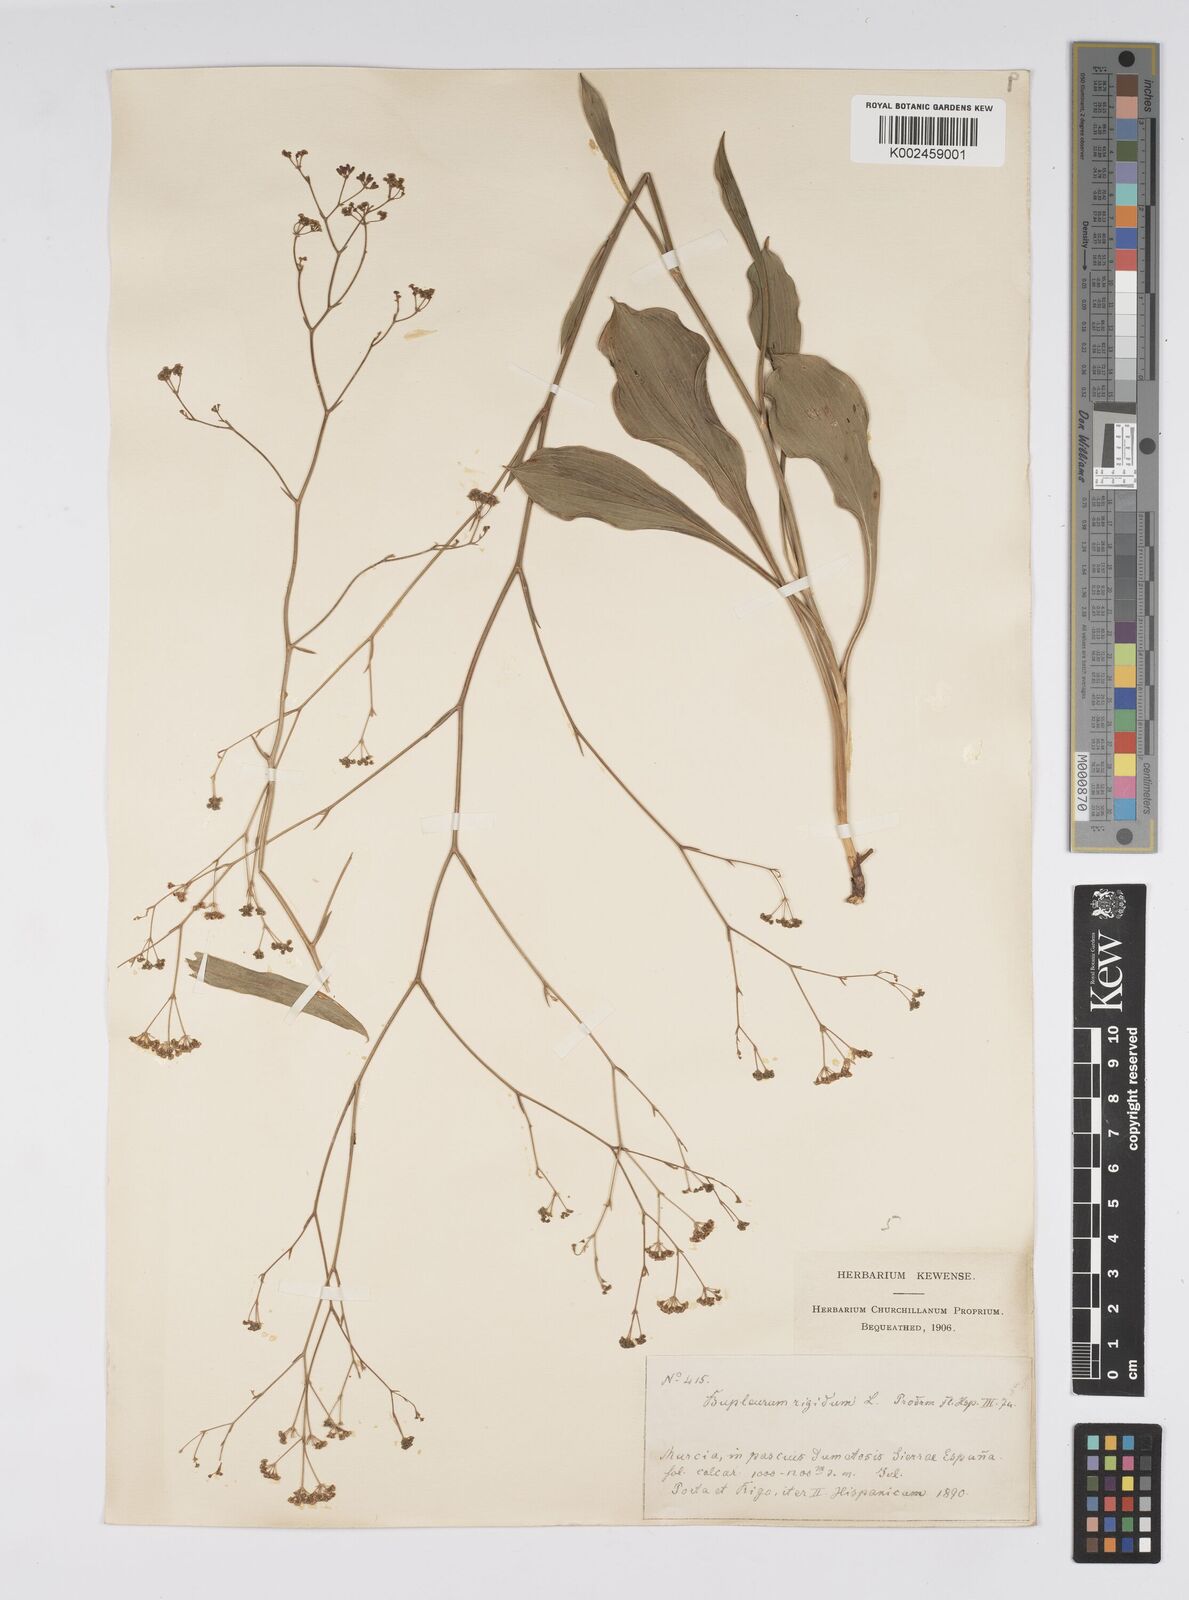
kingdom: Plantae
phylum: Tracheophyta
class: Magnoliopsida
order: Apiales
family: Apiaceae
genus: Bupleurum
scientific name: Bupleurum rigidum
